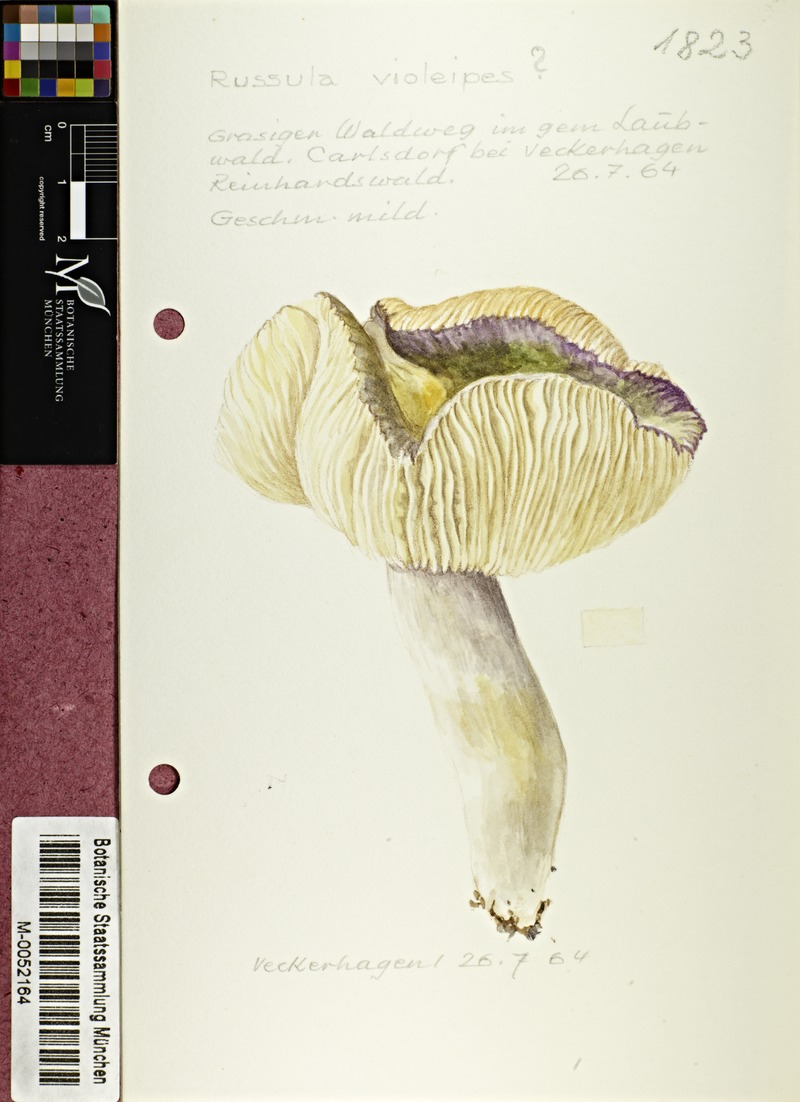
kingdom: Fungi
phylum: Basidiomycota
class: Agaricomycetes
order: Russulales
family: Russulaceae
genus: Russula
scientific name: Russula violeipes
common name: Velvet brittlegill
